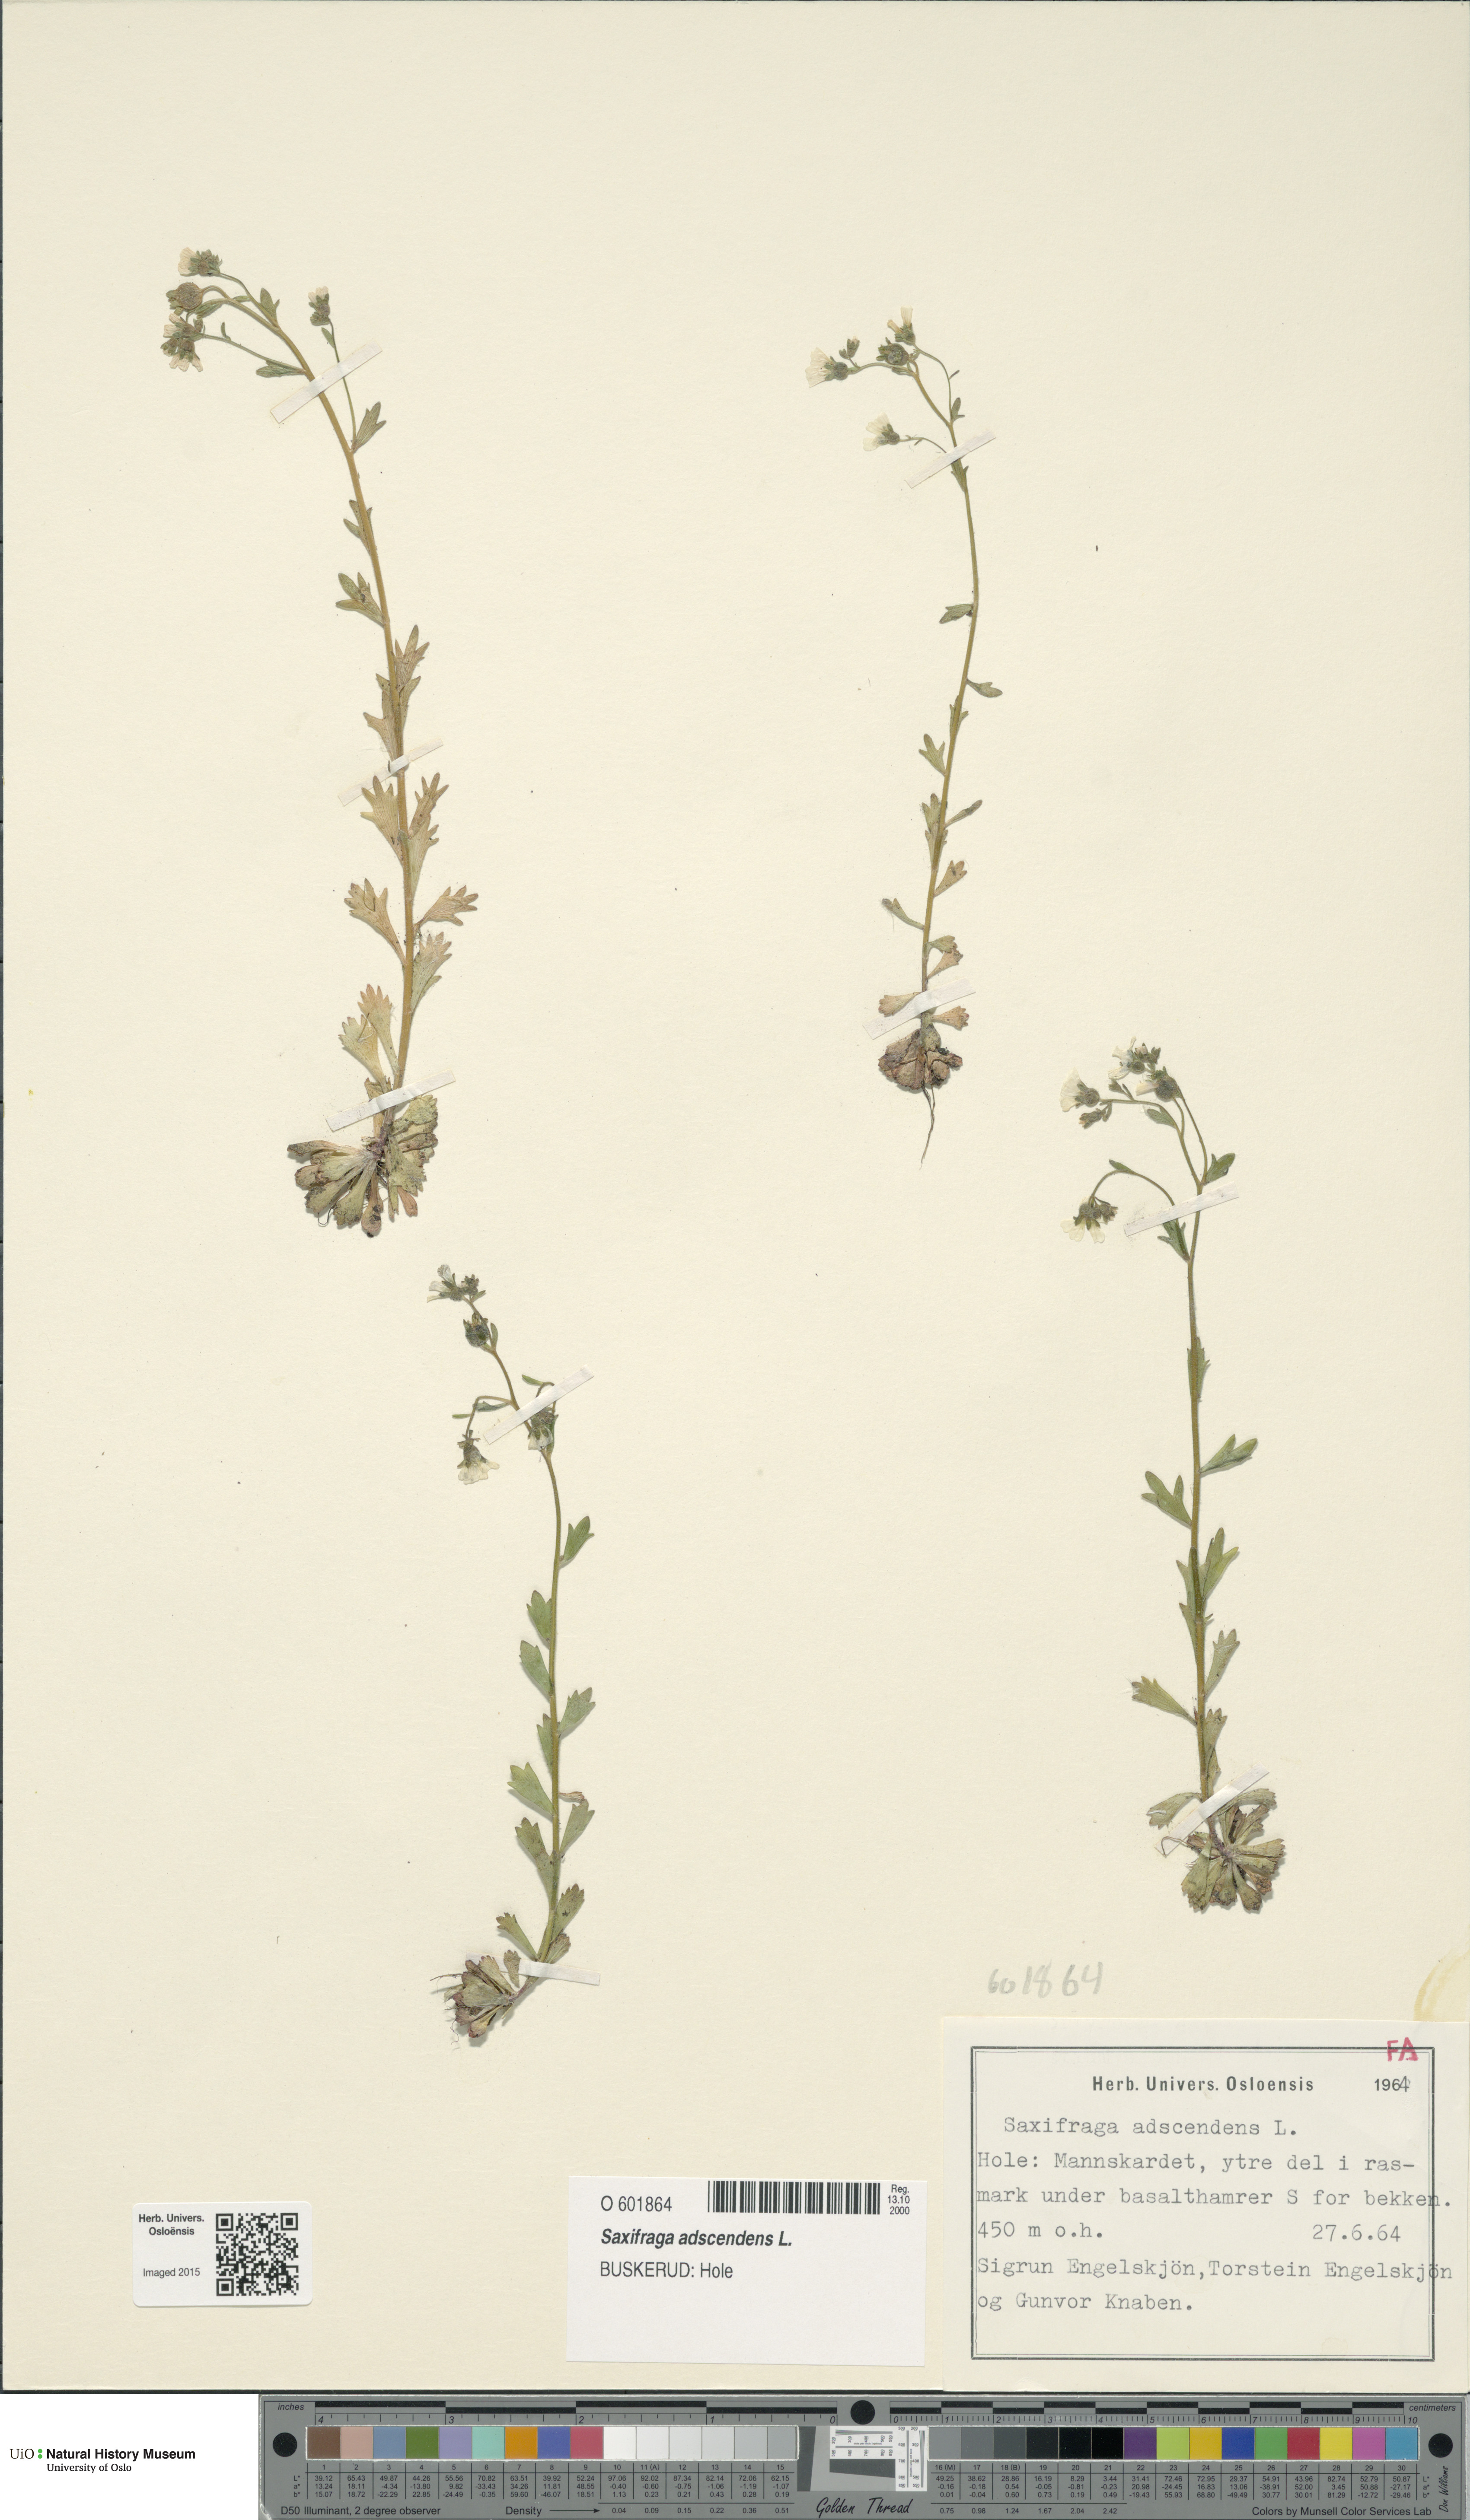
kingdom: Plantae
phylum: Tracheophyta
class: Magnoliopsida
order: Saxifragales
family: Saxifragaceae
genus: Saxifraga
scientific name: Saxifraga adscendens
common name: Ascending saxifrage
